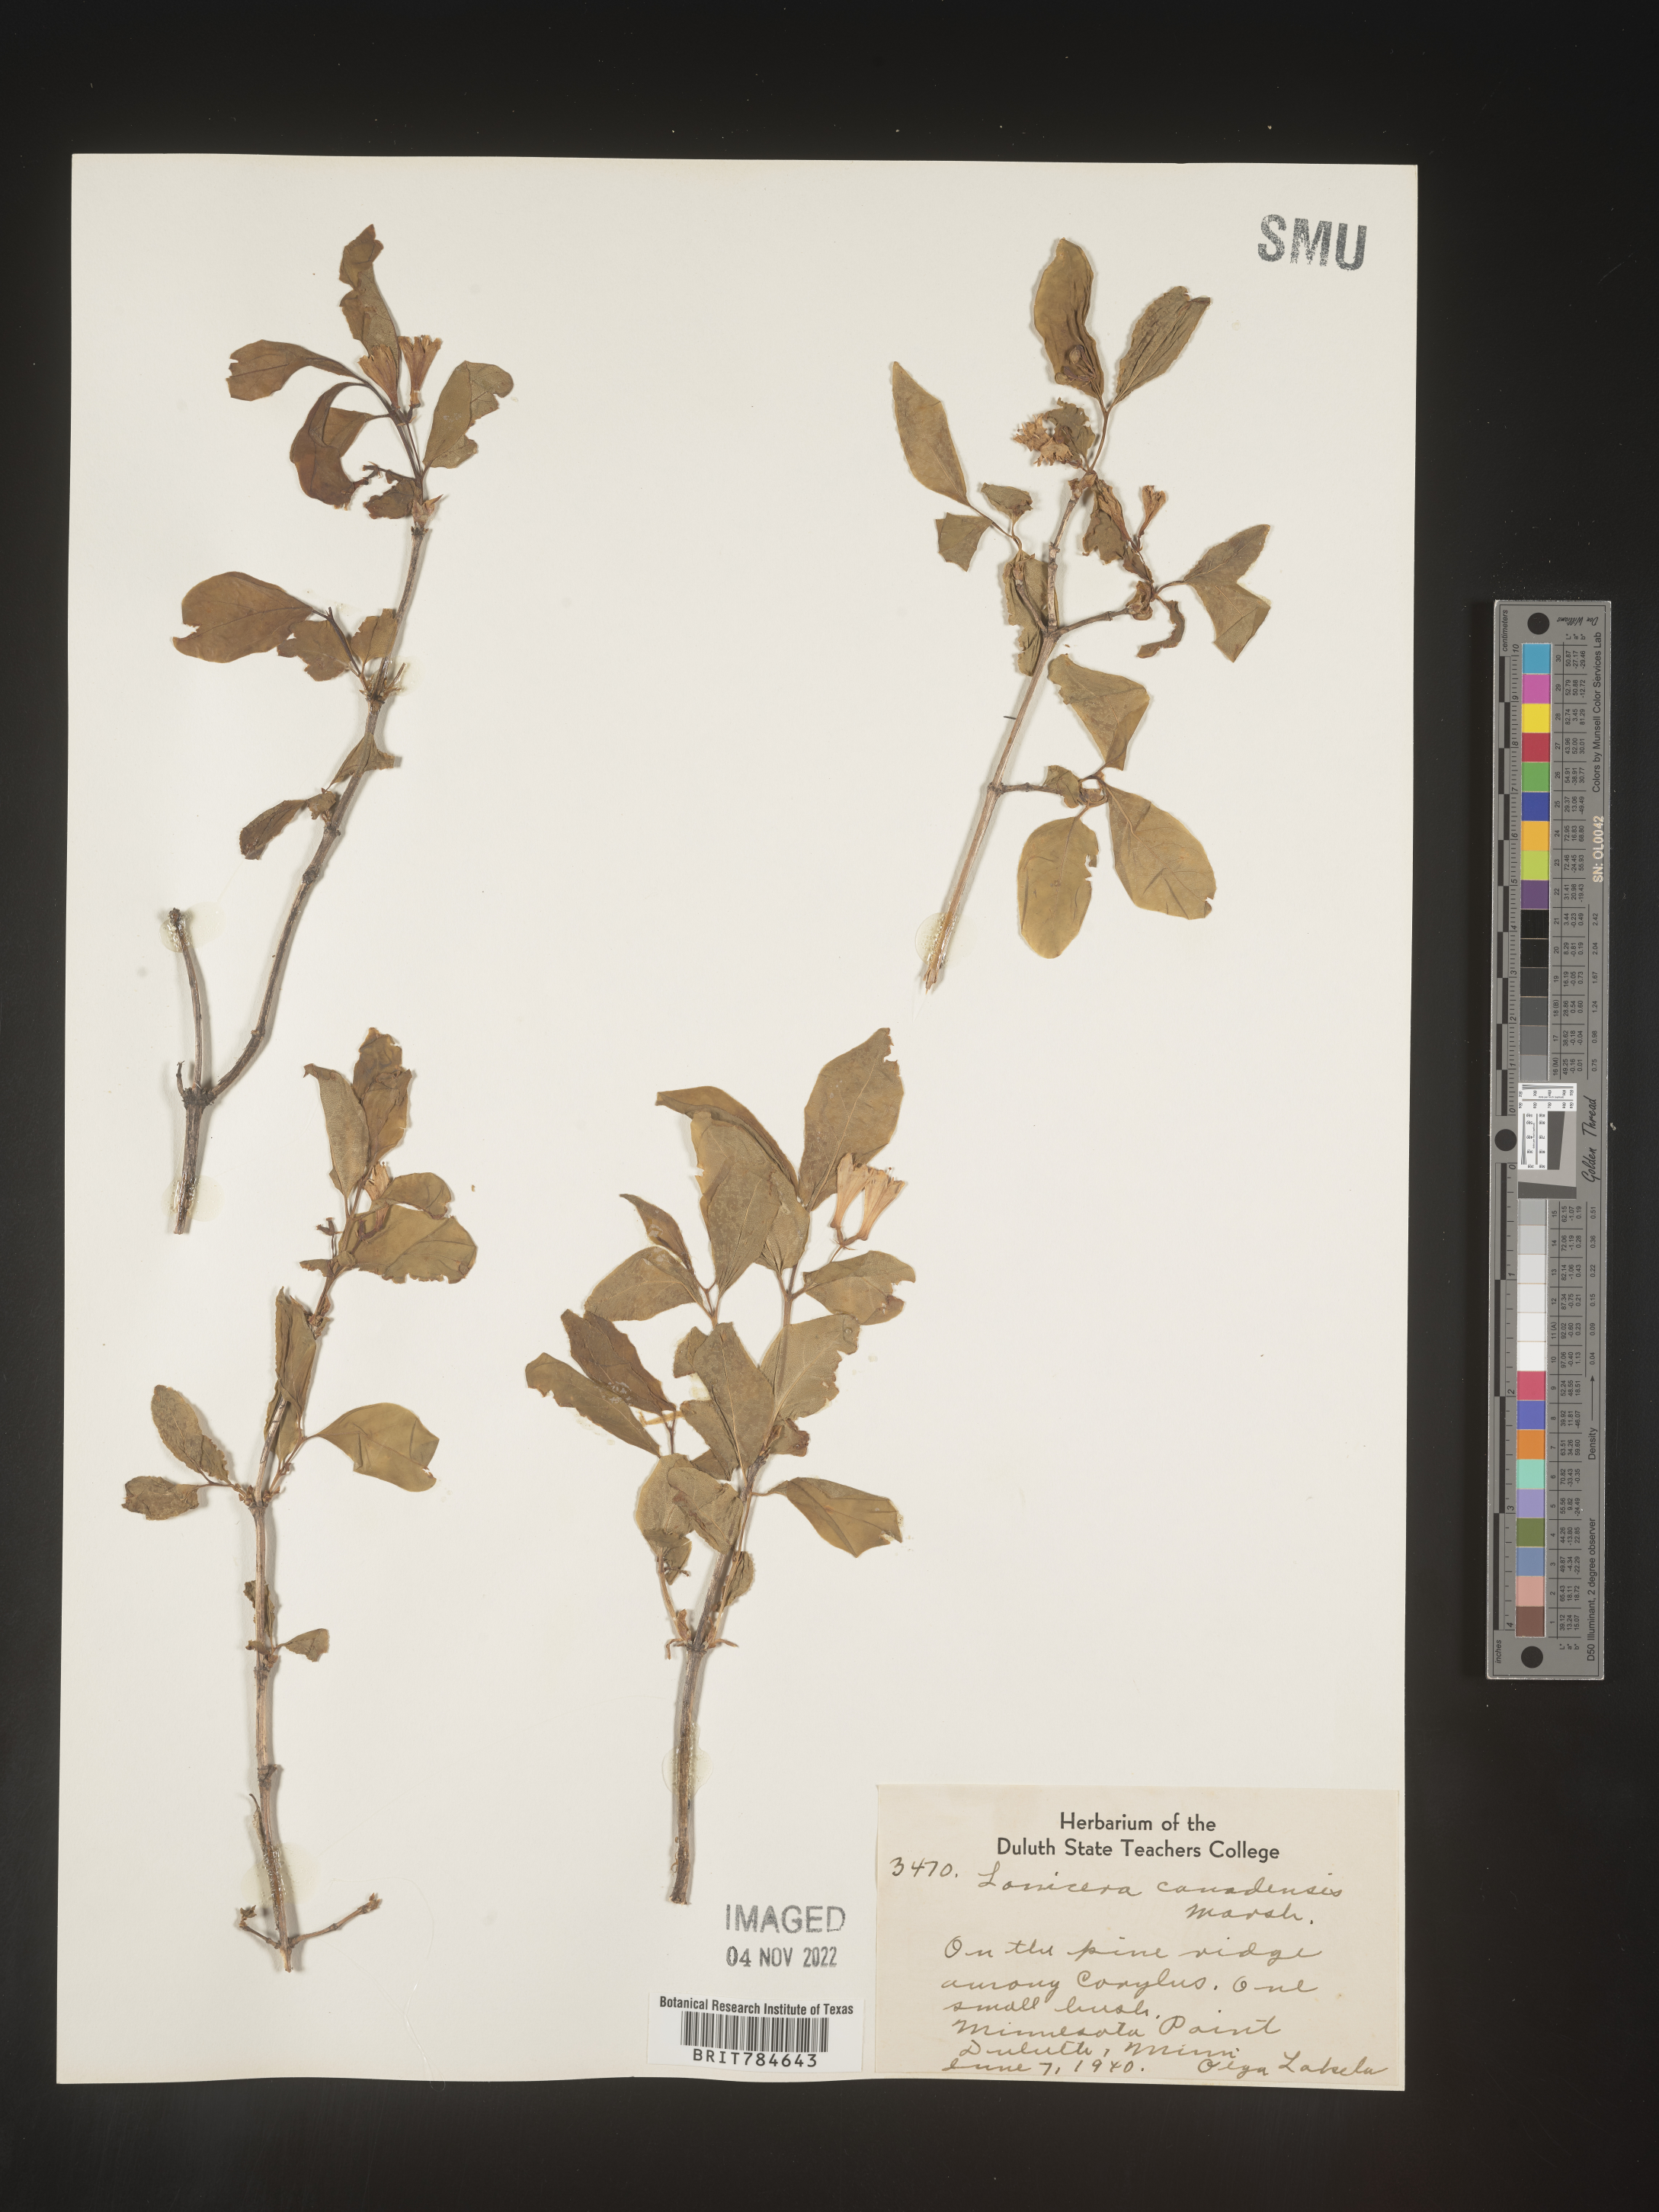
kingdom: Plantae
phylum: Tracheophyta
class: Magnoliopsida
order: Dipsacales
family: Caprifoliaceae
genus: Lonicera
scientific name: Lonicera
